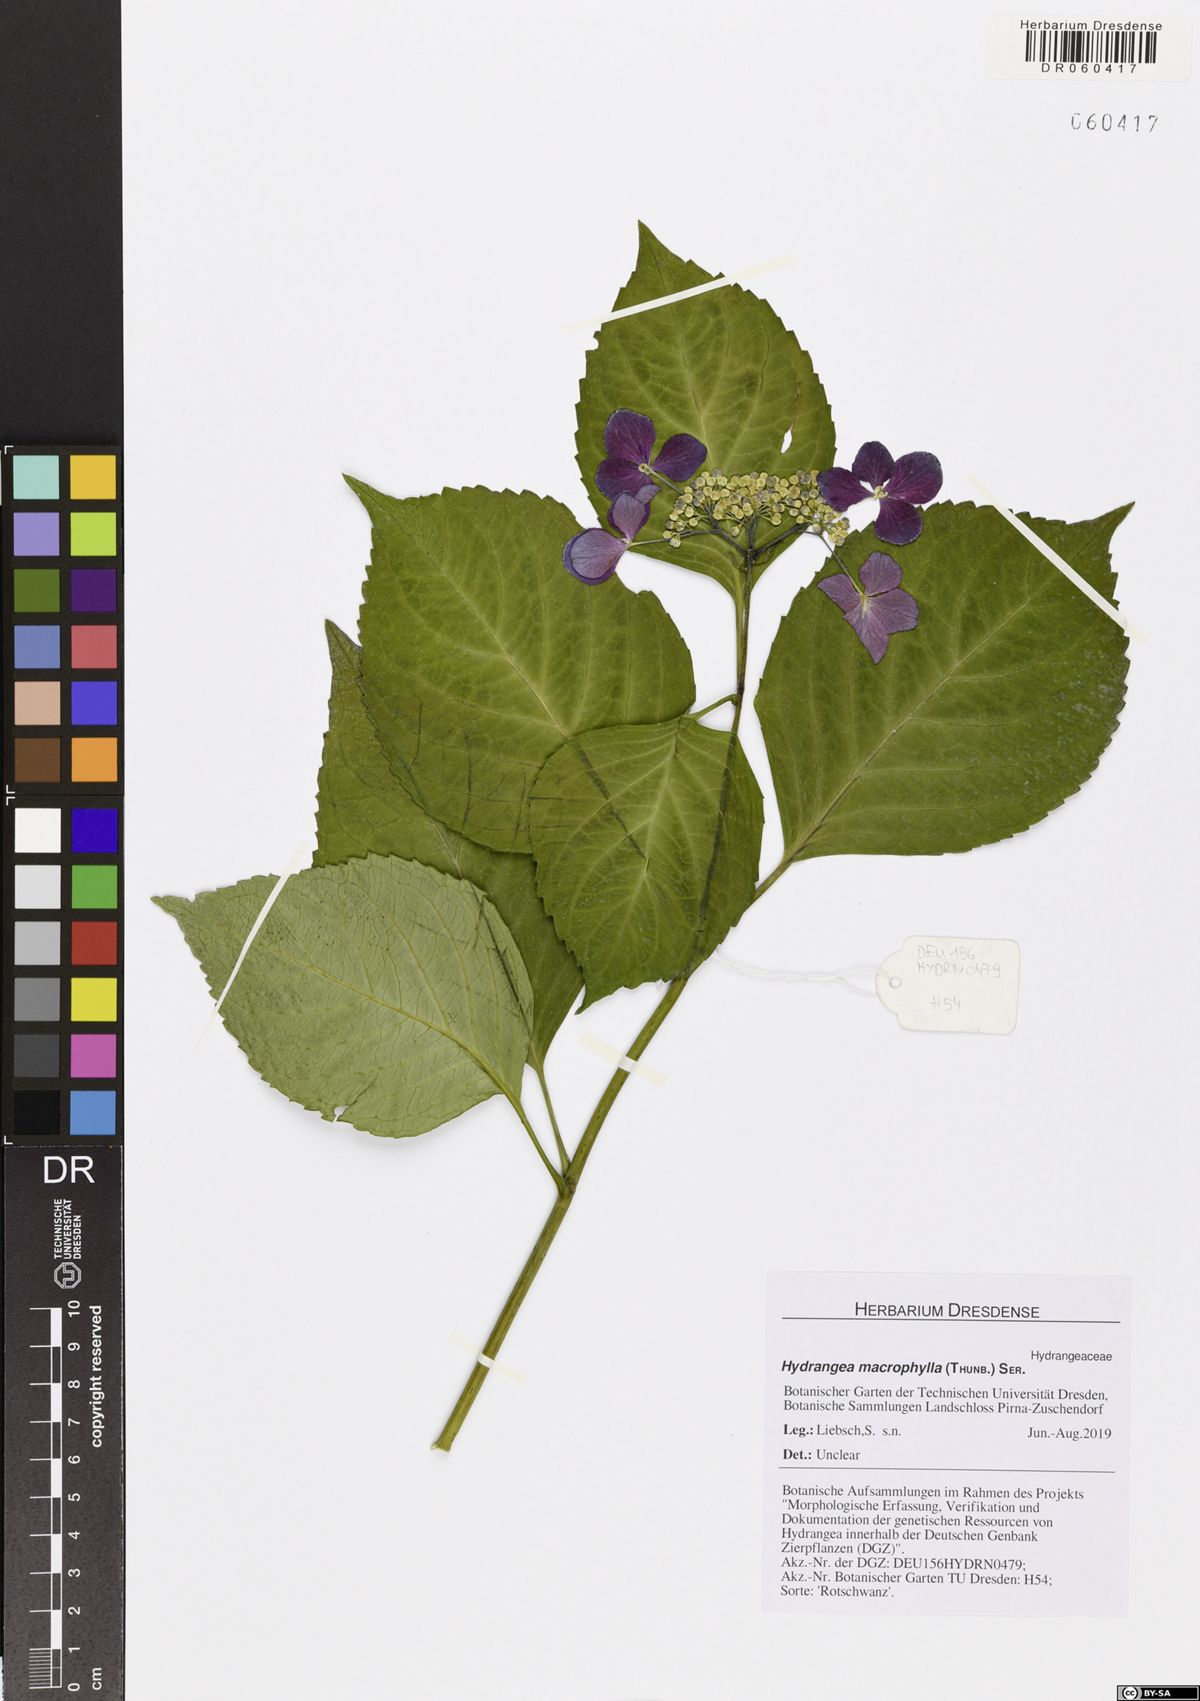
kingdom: Plantae
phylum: Tracheophyta
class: Magnoliopsida
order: Cornales
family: Hydrangeaceae
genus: Hydrangea
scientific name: Hydrangea macrophylla
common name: Hydrangea
